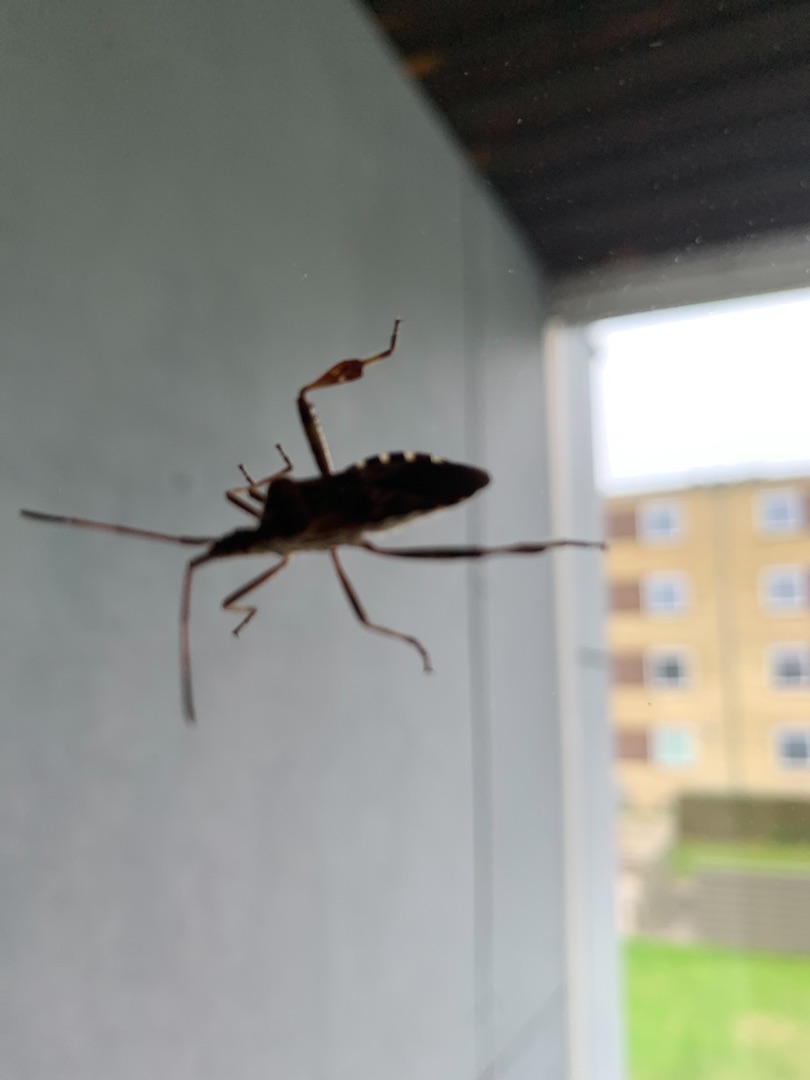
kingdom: Animalia
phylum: Arthropoda
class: Insecta
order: Hemiptera
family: Coreidae
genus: Leptoglossus
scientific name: Leptoglossus occidentalis
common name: Amerikansk fyrretæge
